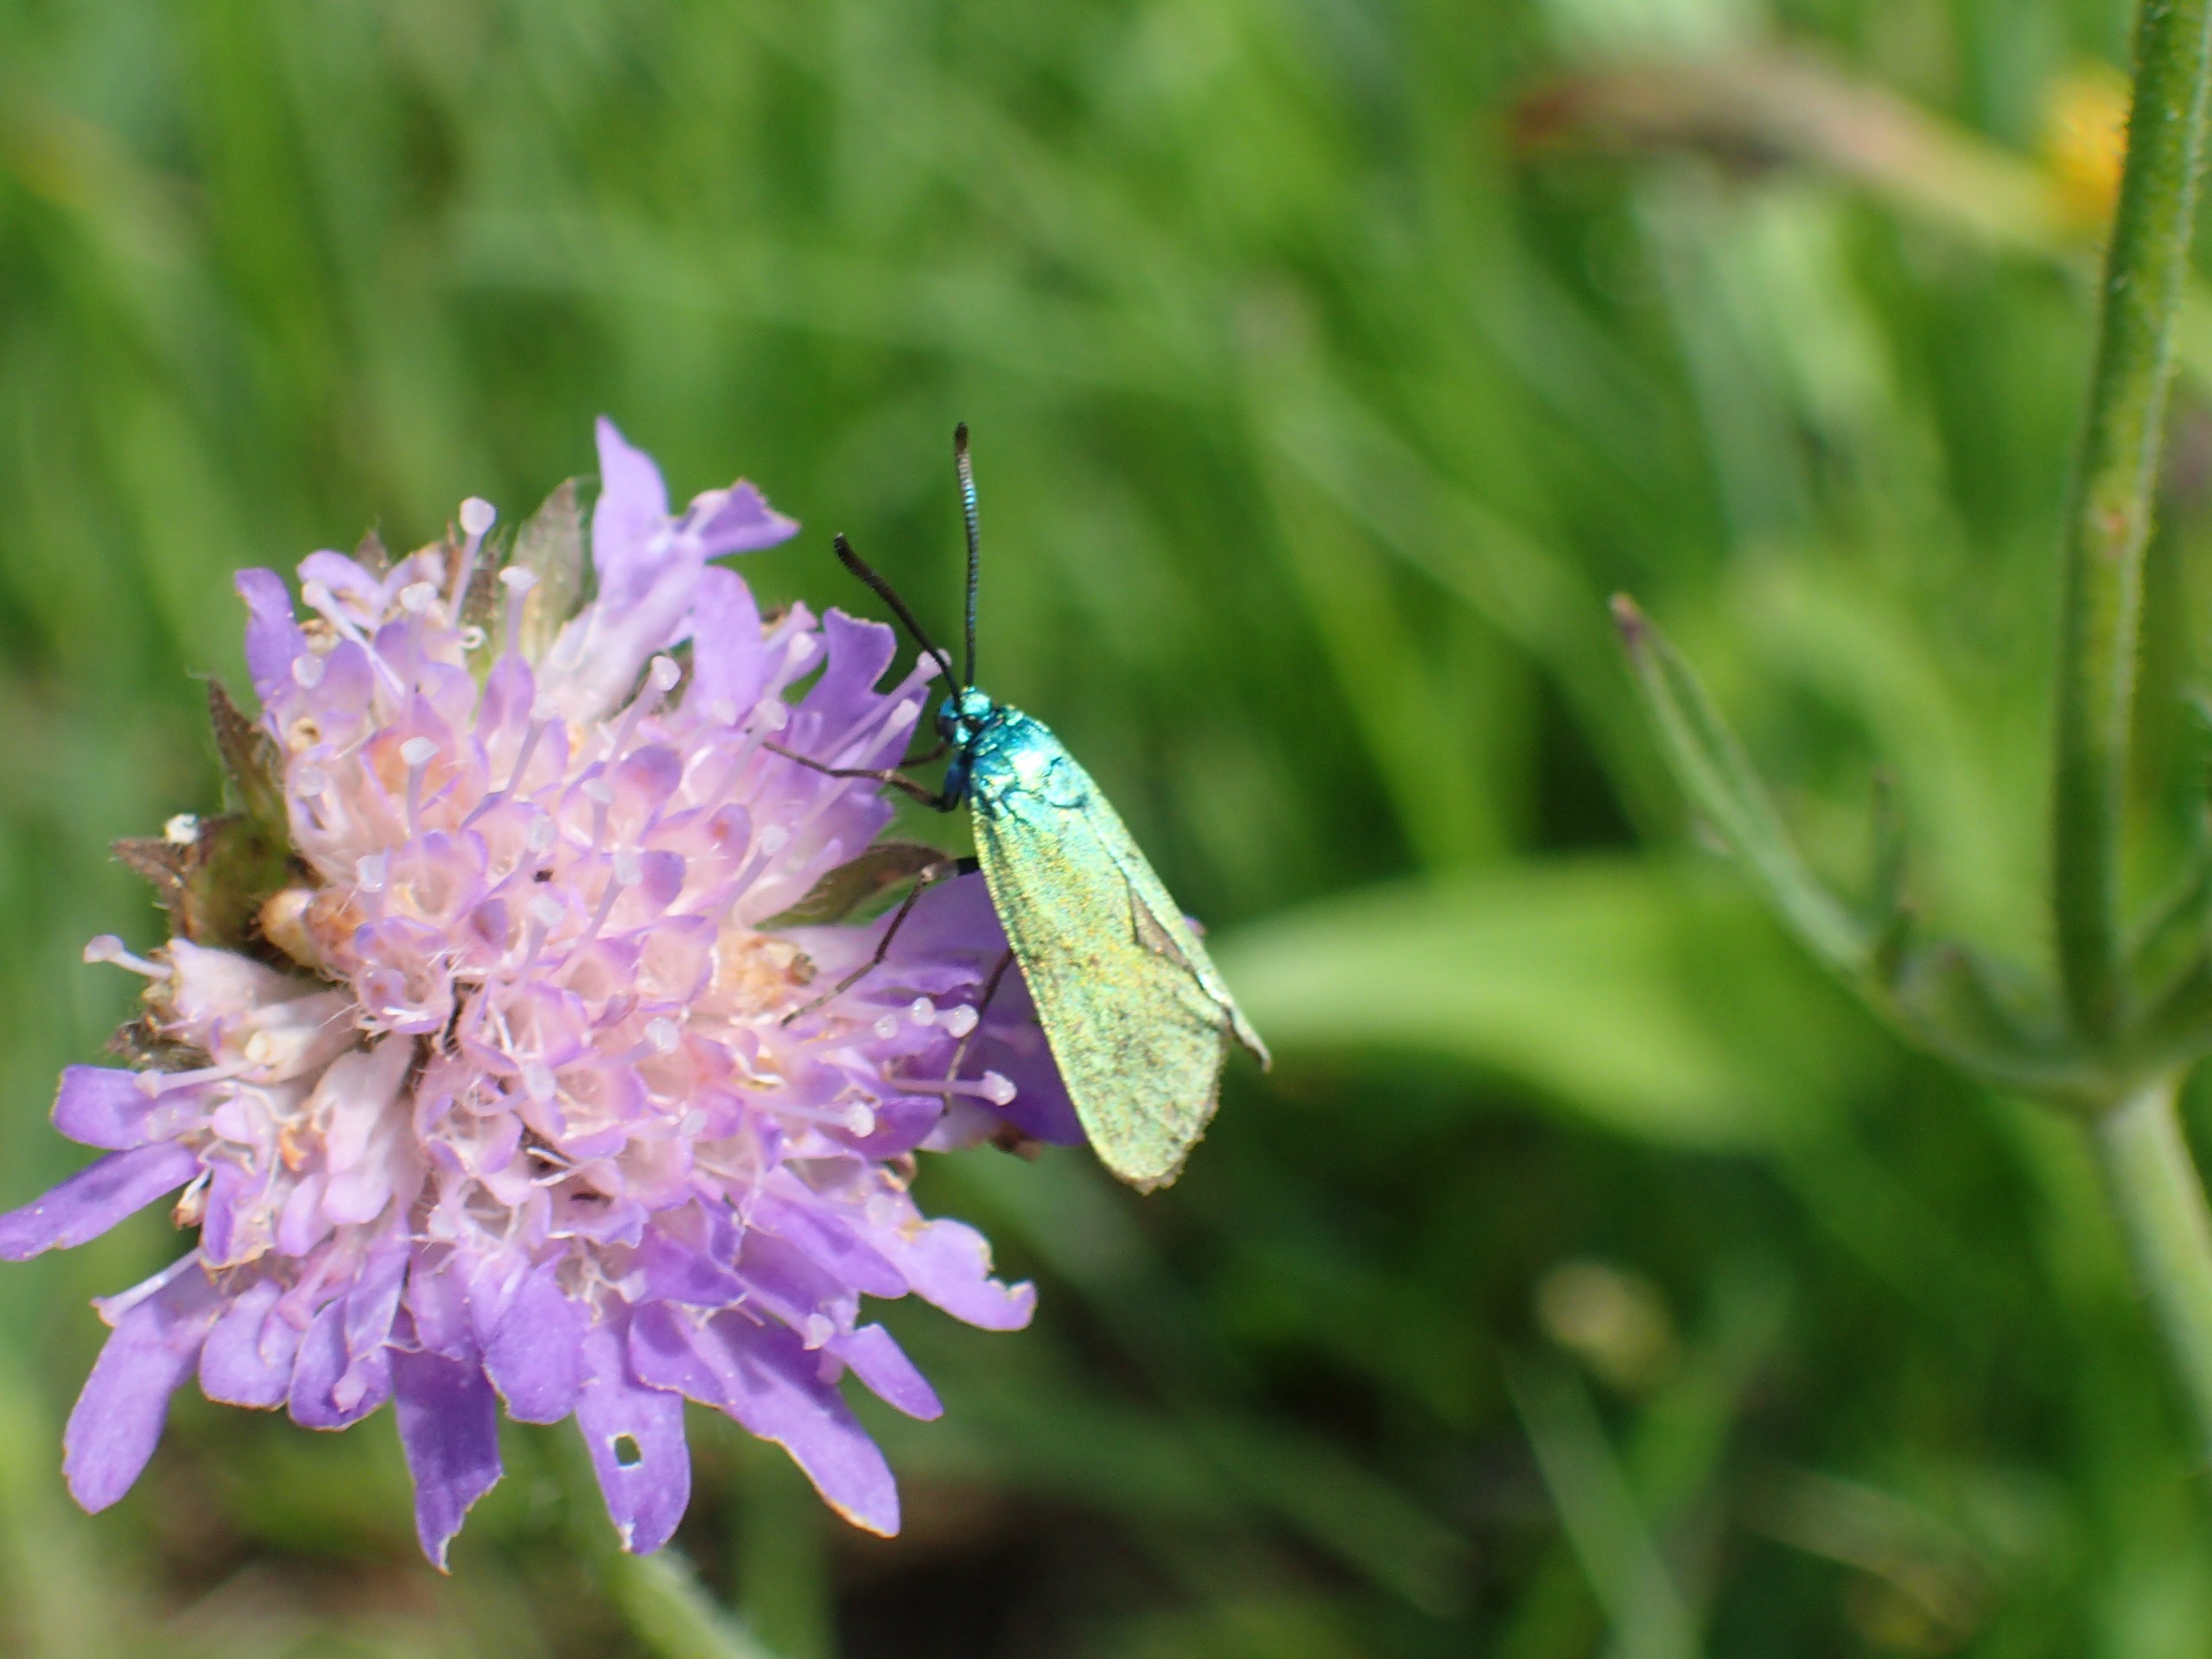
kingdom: Animalia
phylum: Arthropoda
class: Insecta
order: Lepidoptera
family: Zygaenidae
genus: Adscita
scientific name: Adscita statices
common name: Metalvinge
